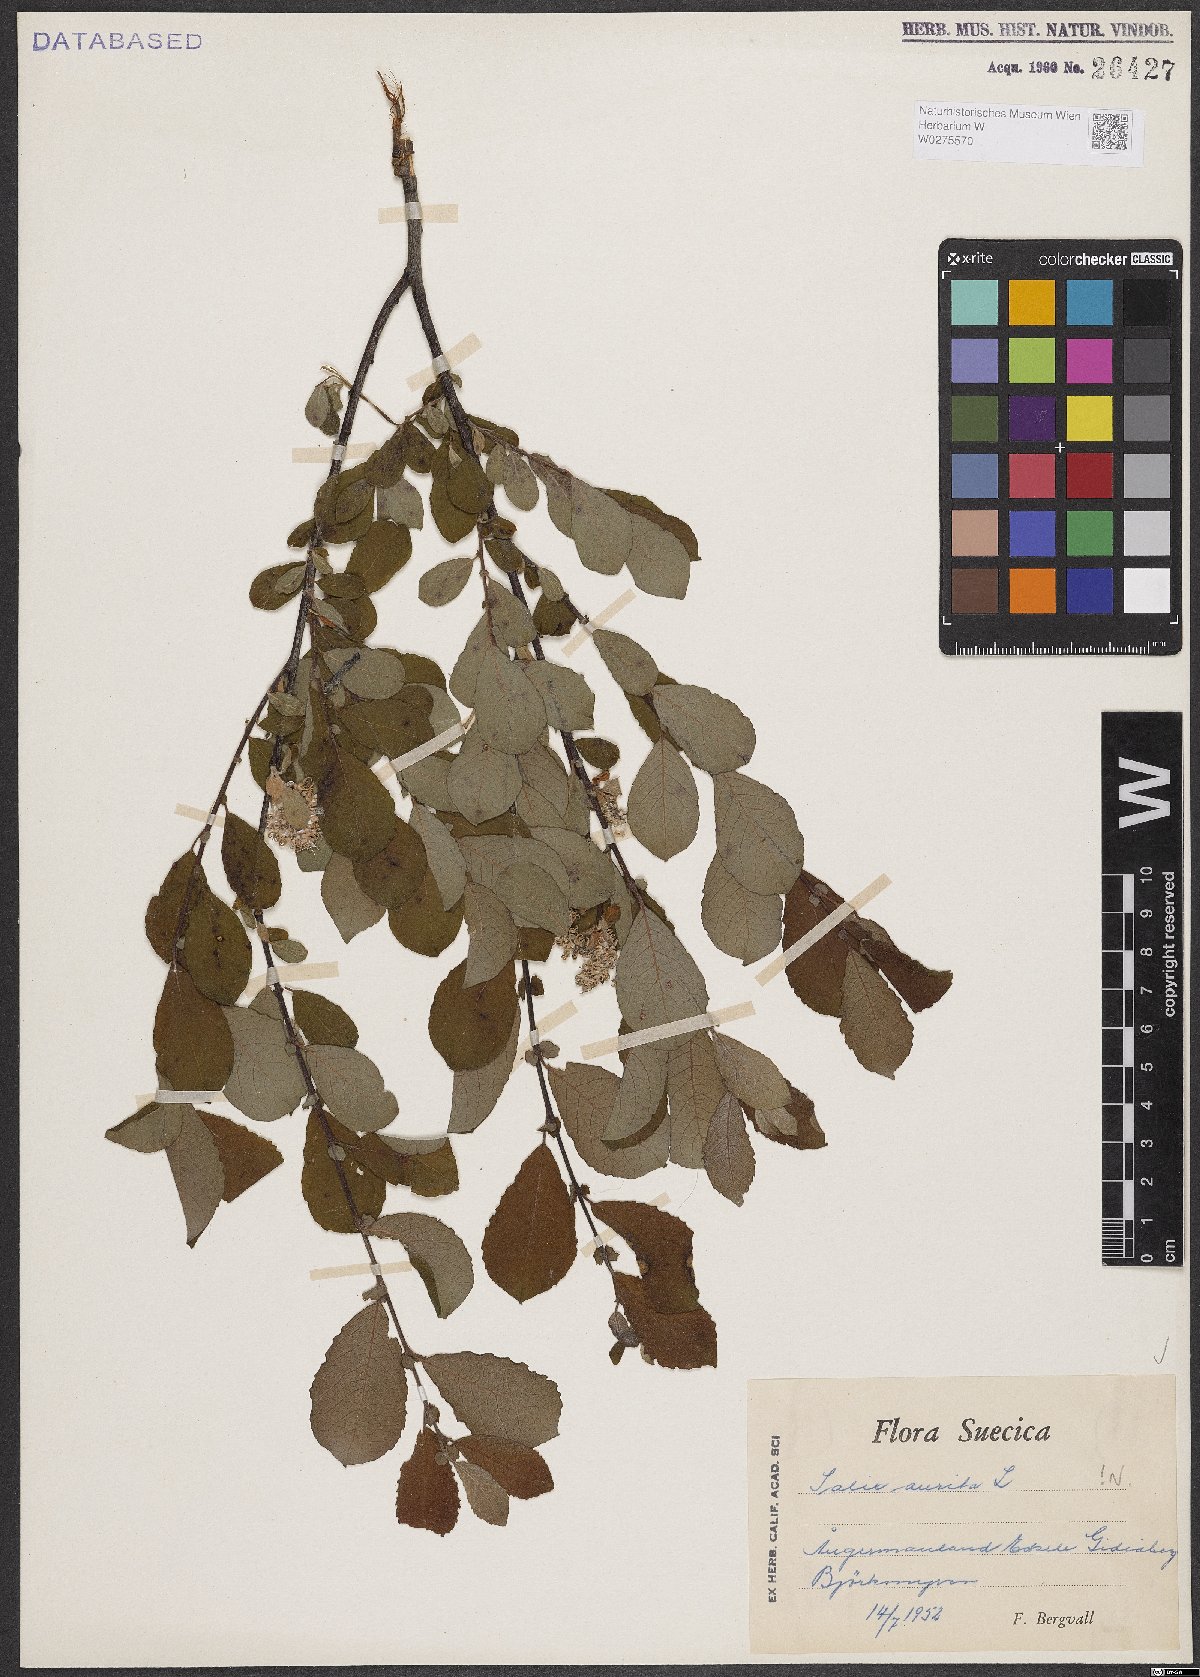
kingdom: Plantae
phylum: Tracheophyta
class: Magnoliopsida
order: Malpighiales
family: Salicaceae
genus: Salix
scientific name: Salix aurita
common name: Eared willow
